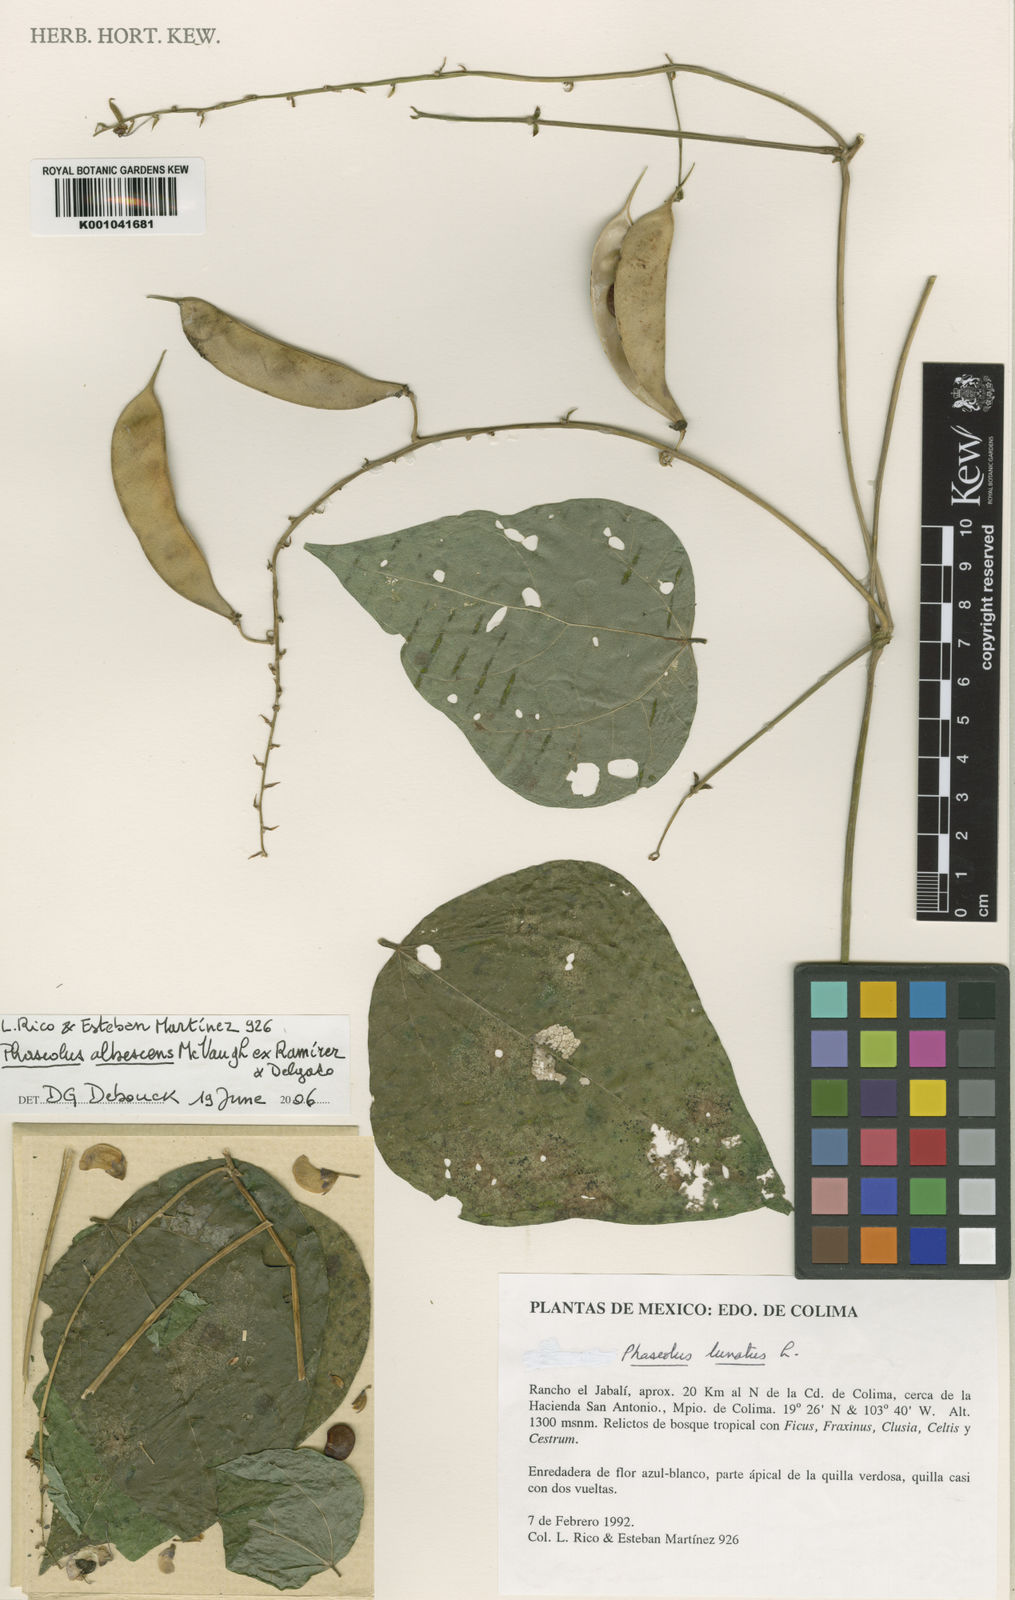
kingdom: Plantae
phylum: Tracheophyta
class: Magnoliopsida
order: Fabales
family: Fabaceae
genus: Phaseolus
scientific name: Phaseolus albescens
